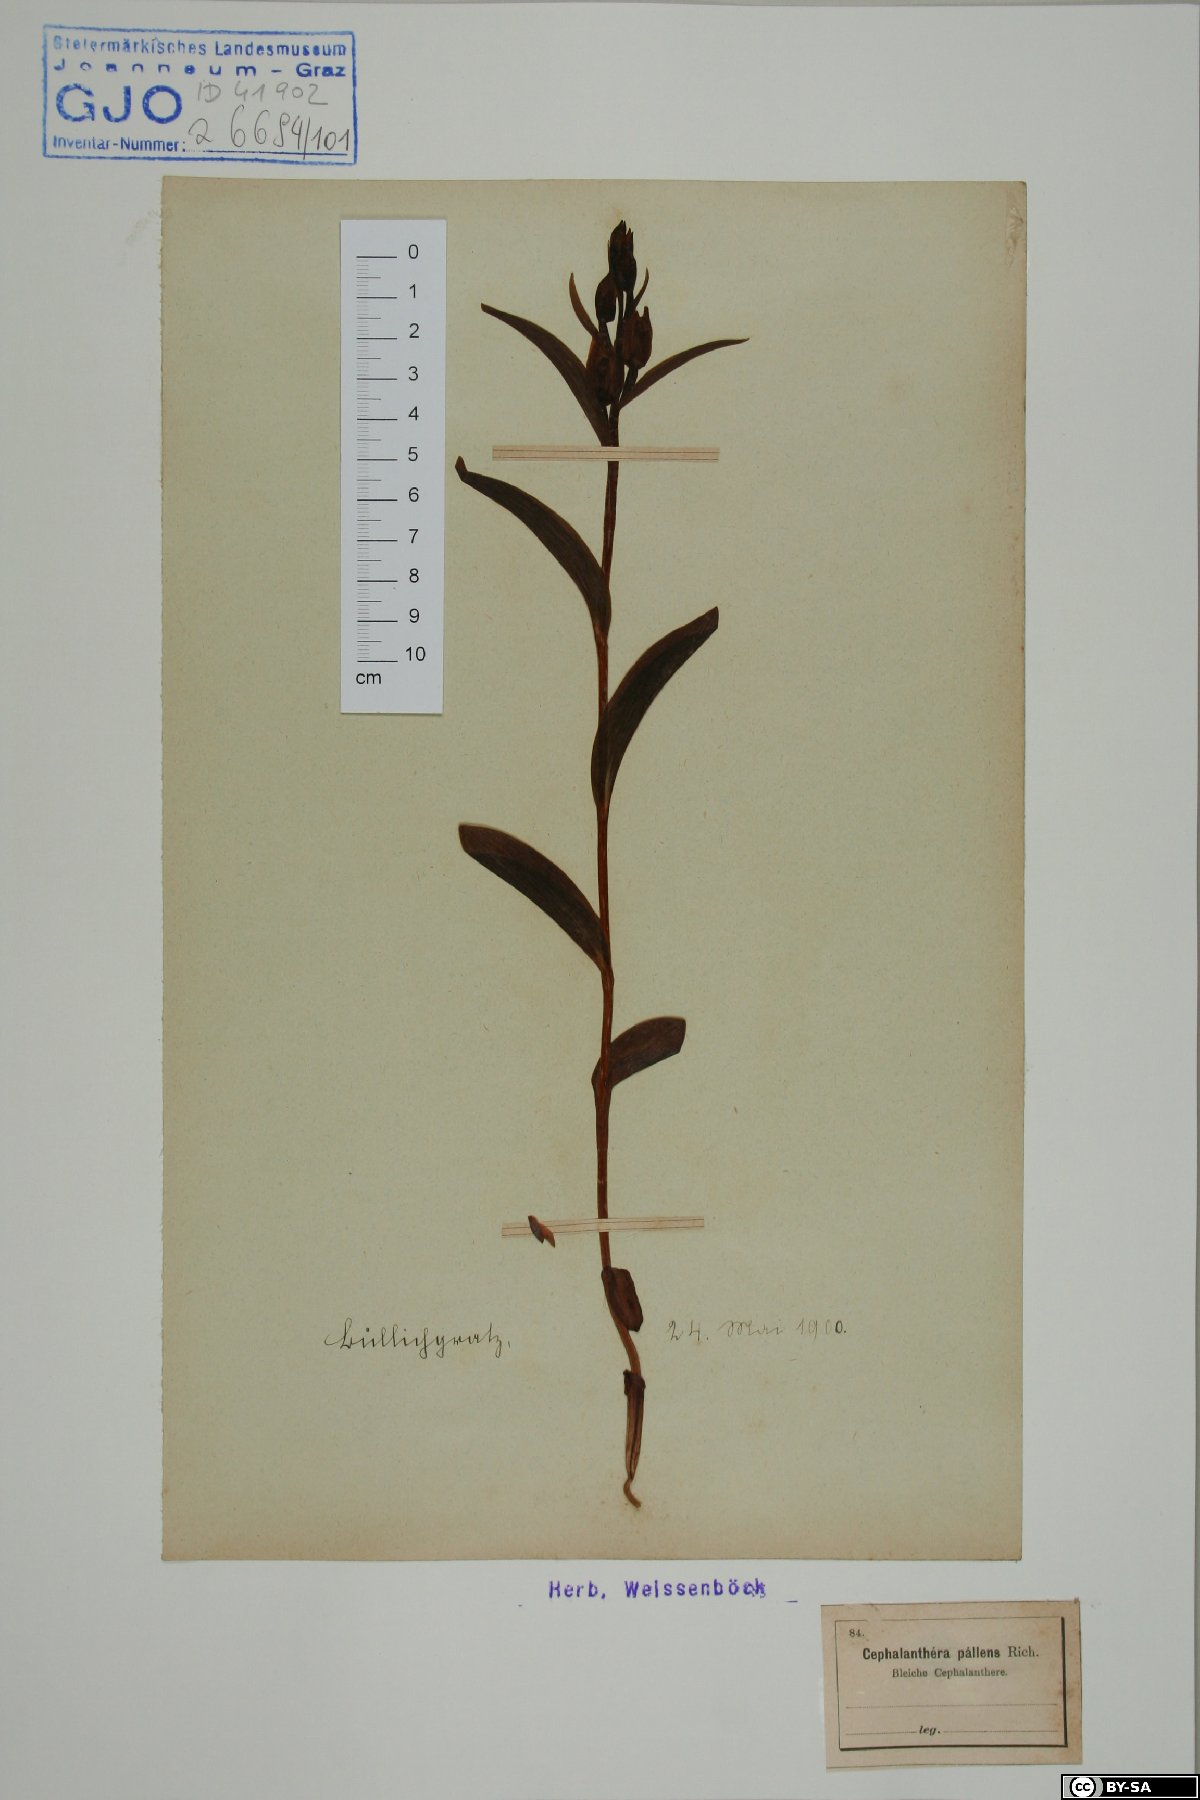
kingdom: Plantae
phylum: Tracheophyta
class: Liliopsida
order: Asparagales
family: Orchidaceae
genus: Cephalanthera
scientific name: Cephalanthera longifolia
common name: Narrow-leaved helleborine
